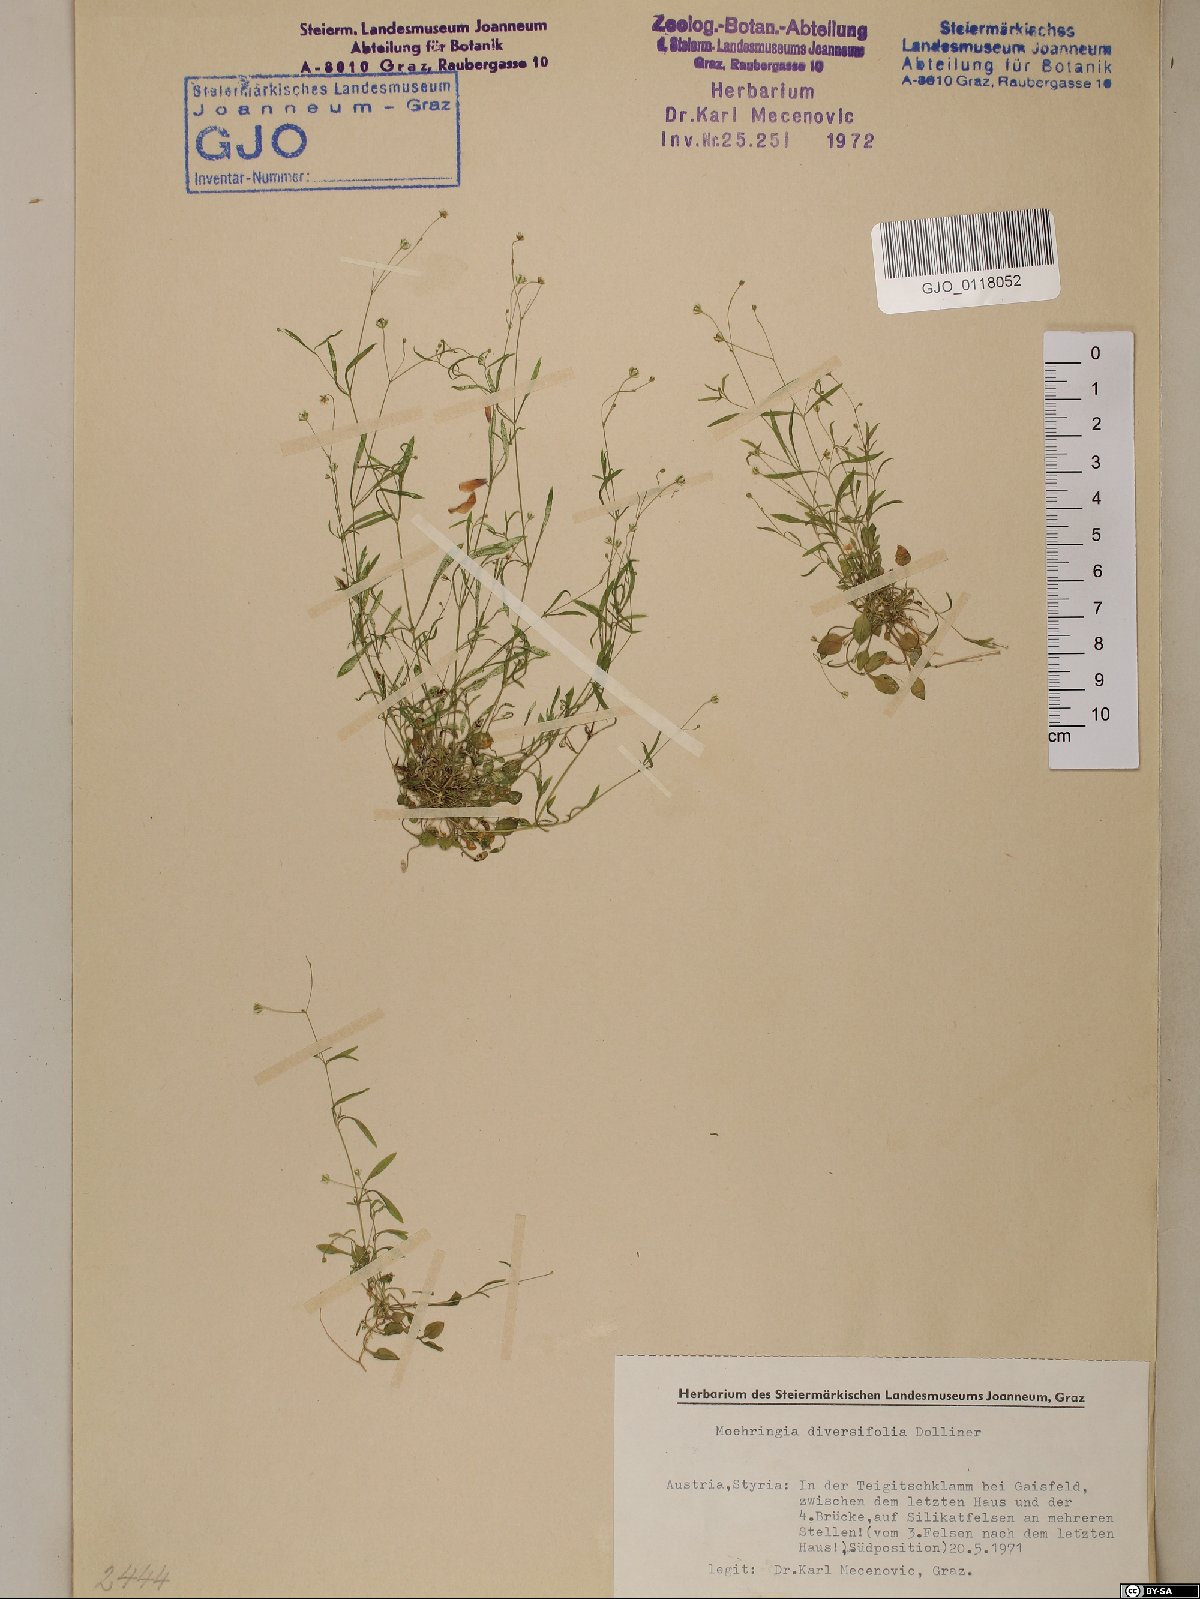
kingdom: Plantae
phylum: Tracheophyta
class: Magnoliopsida
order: Caryophyllales
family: Caryophyllaceae
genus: Moehringia
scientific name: Moehringia diversifolia
